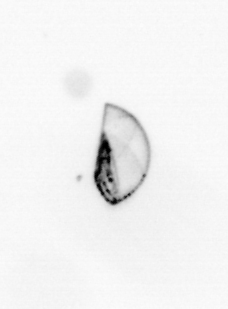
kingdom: Chromista
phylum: Ochrophyta
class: Bacillariophyceae
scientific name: Bacillariophyceae
